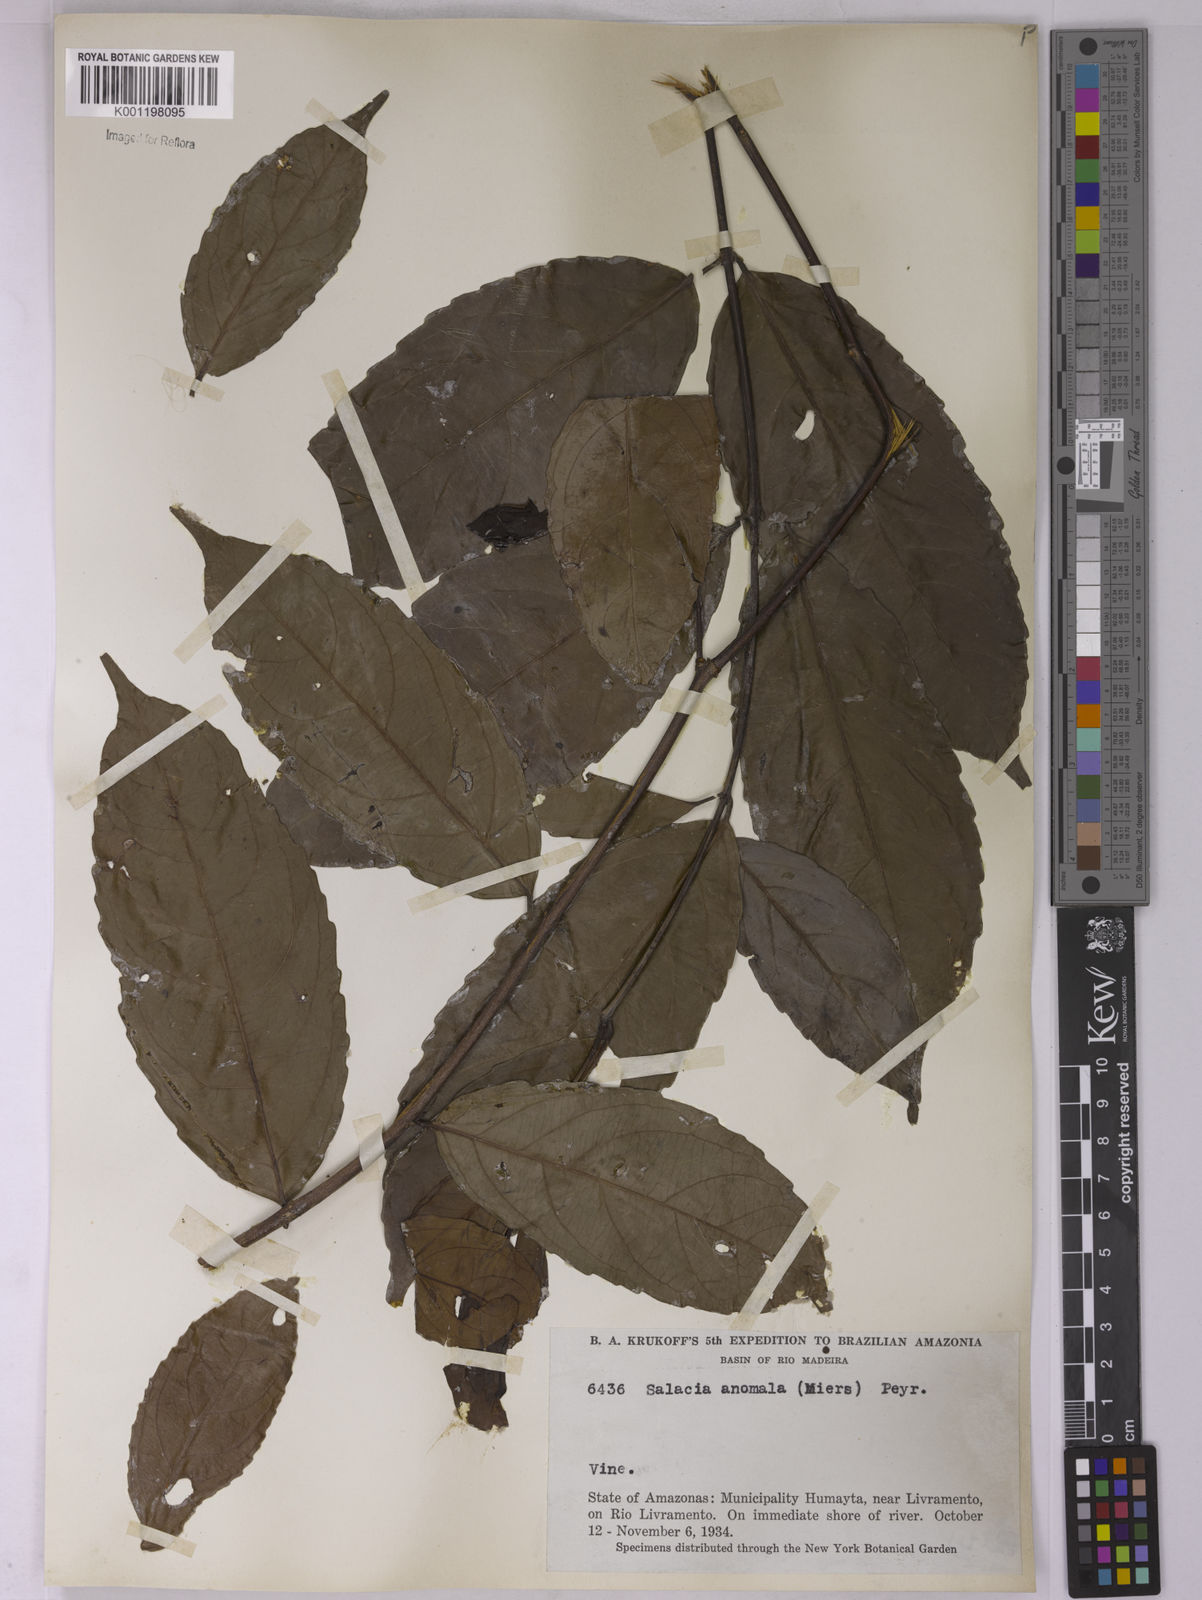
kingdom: Plantae
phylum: Tracheophyta
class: Magnoliopsida
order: Celastrales
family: Celastraceae
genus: Cheiloclinium
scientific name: Cheiloclinium anomalum
